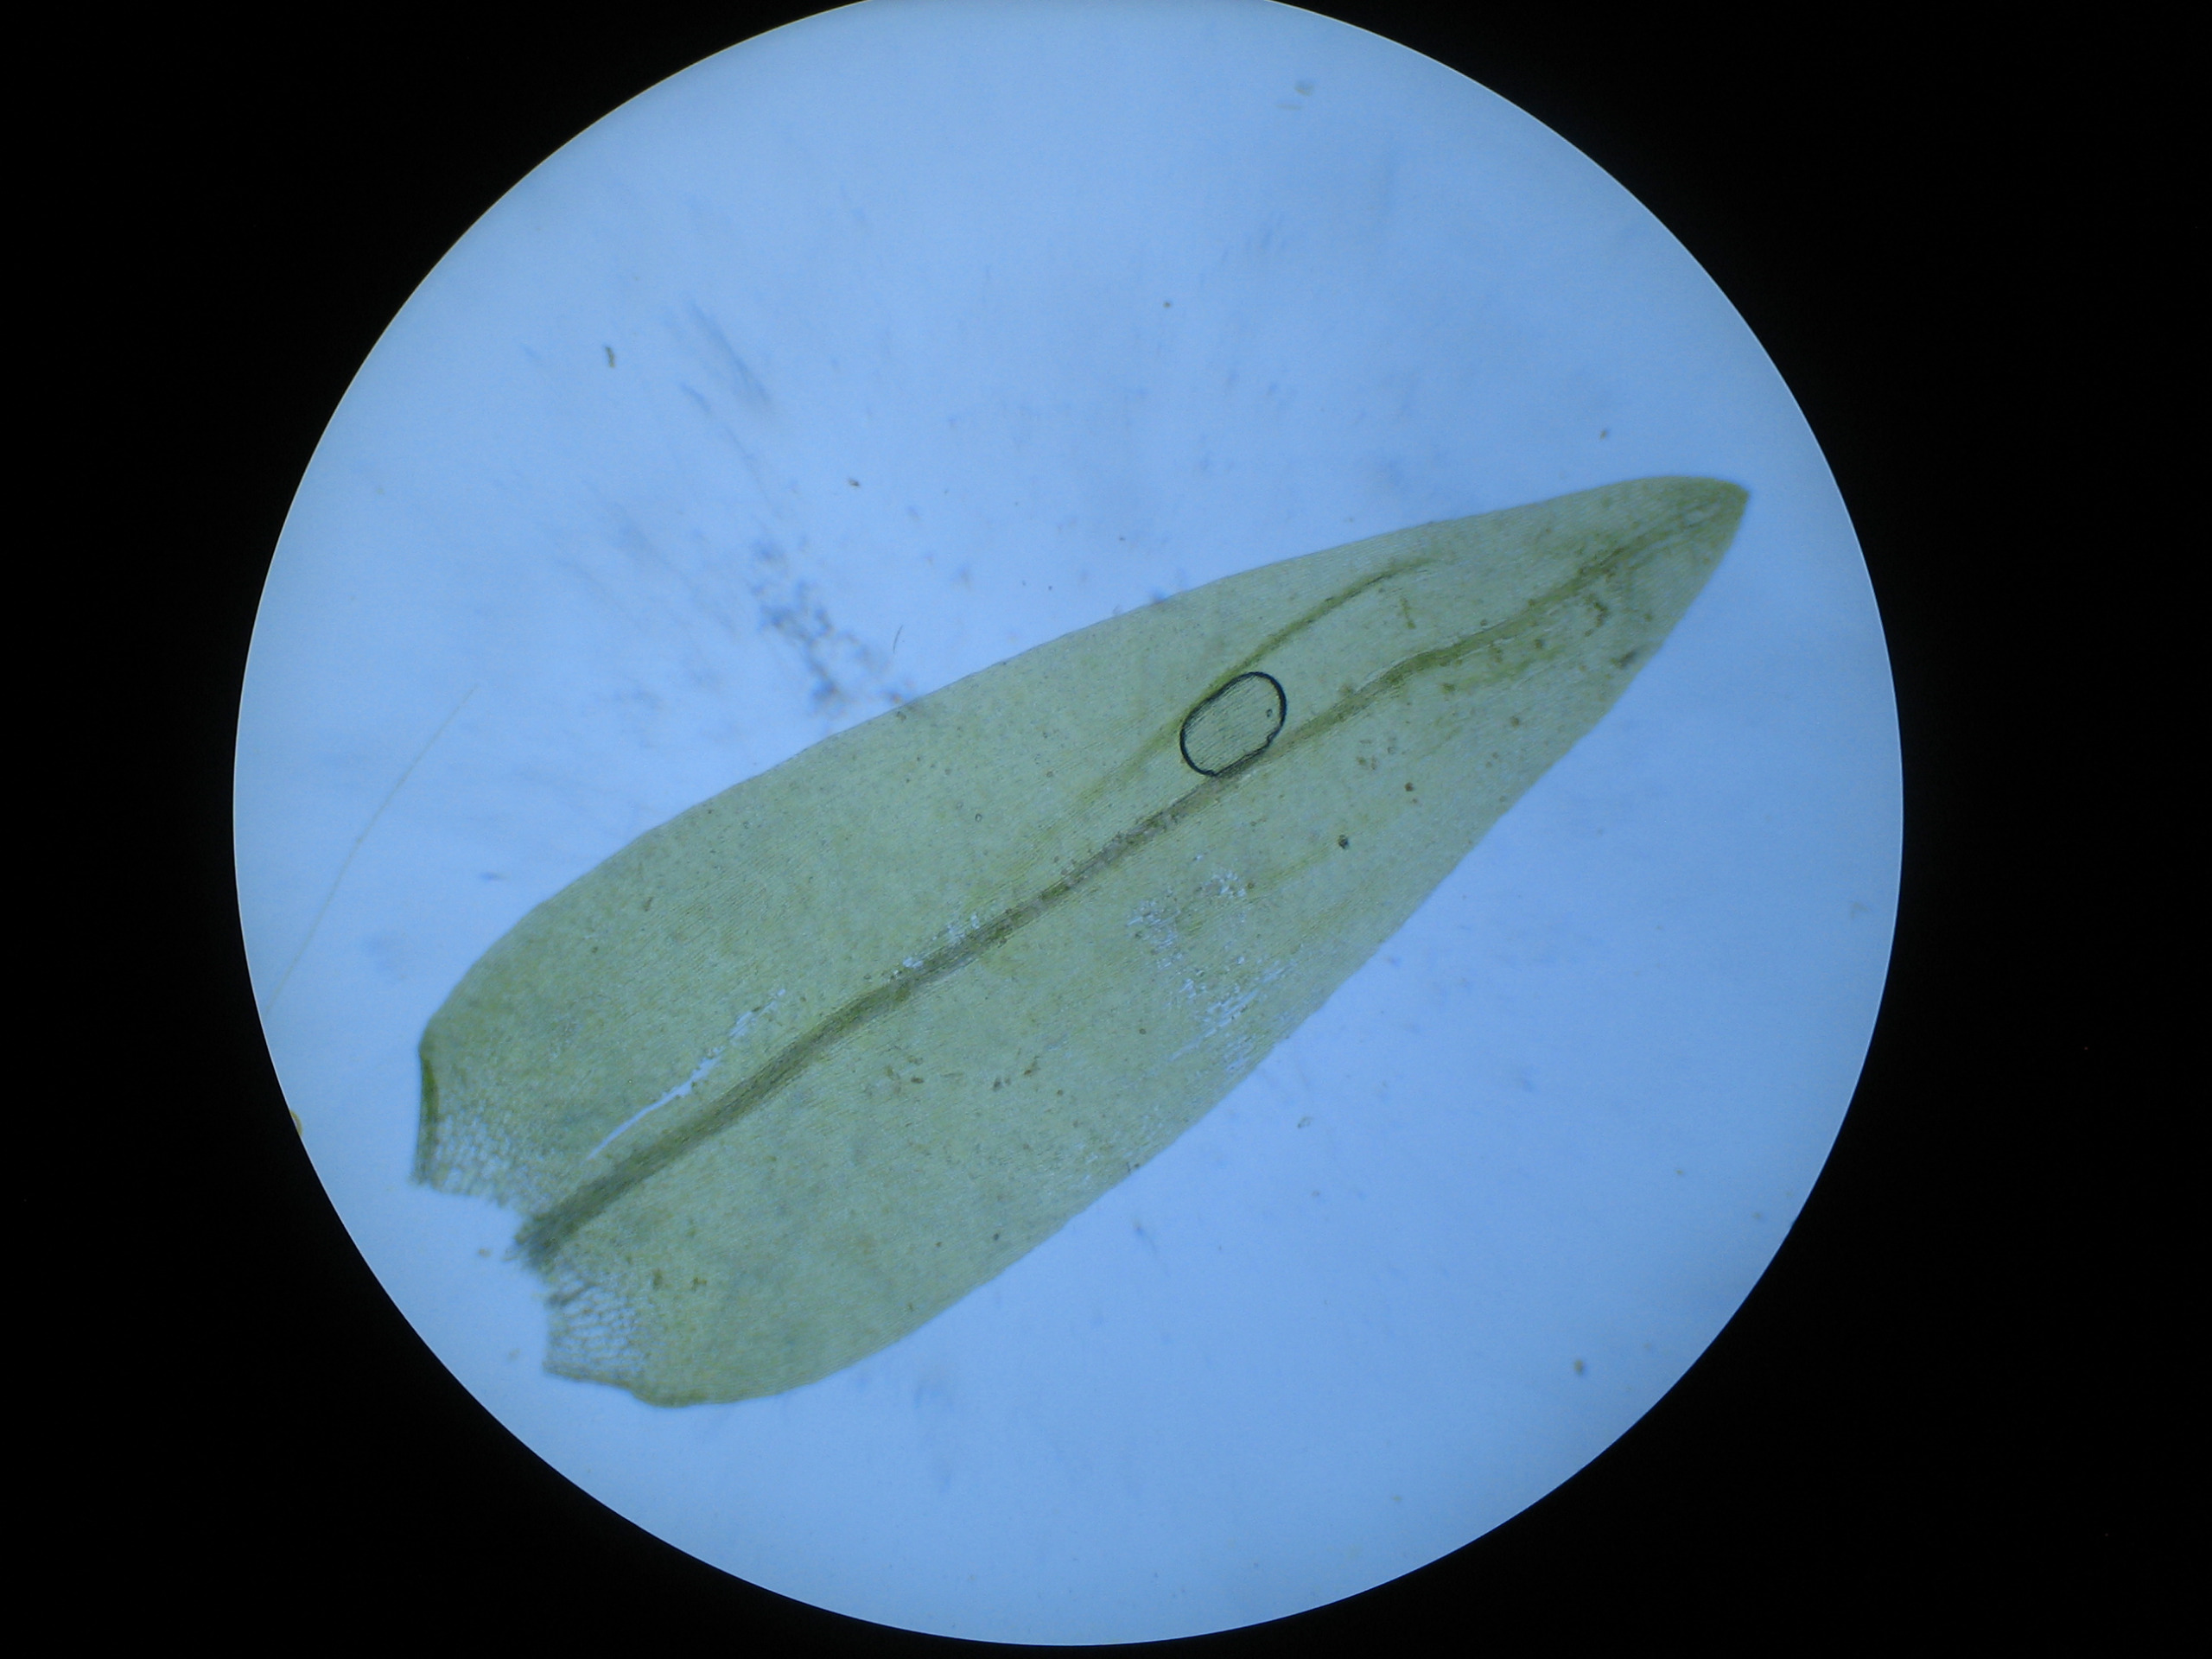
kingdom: Plantae
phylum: Bryophyta
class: Bryopsida
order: Hypnales
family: Calliergonaceae
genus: Calliergon
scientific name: Calliergon cordifolium
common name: Almindelig skebladsmos
